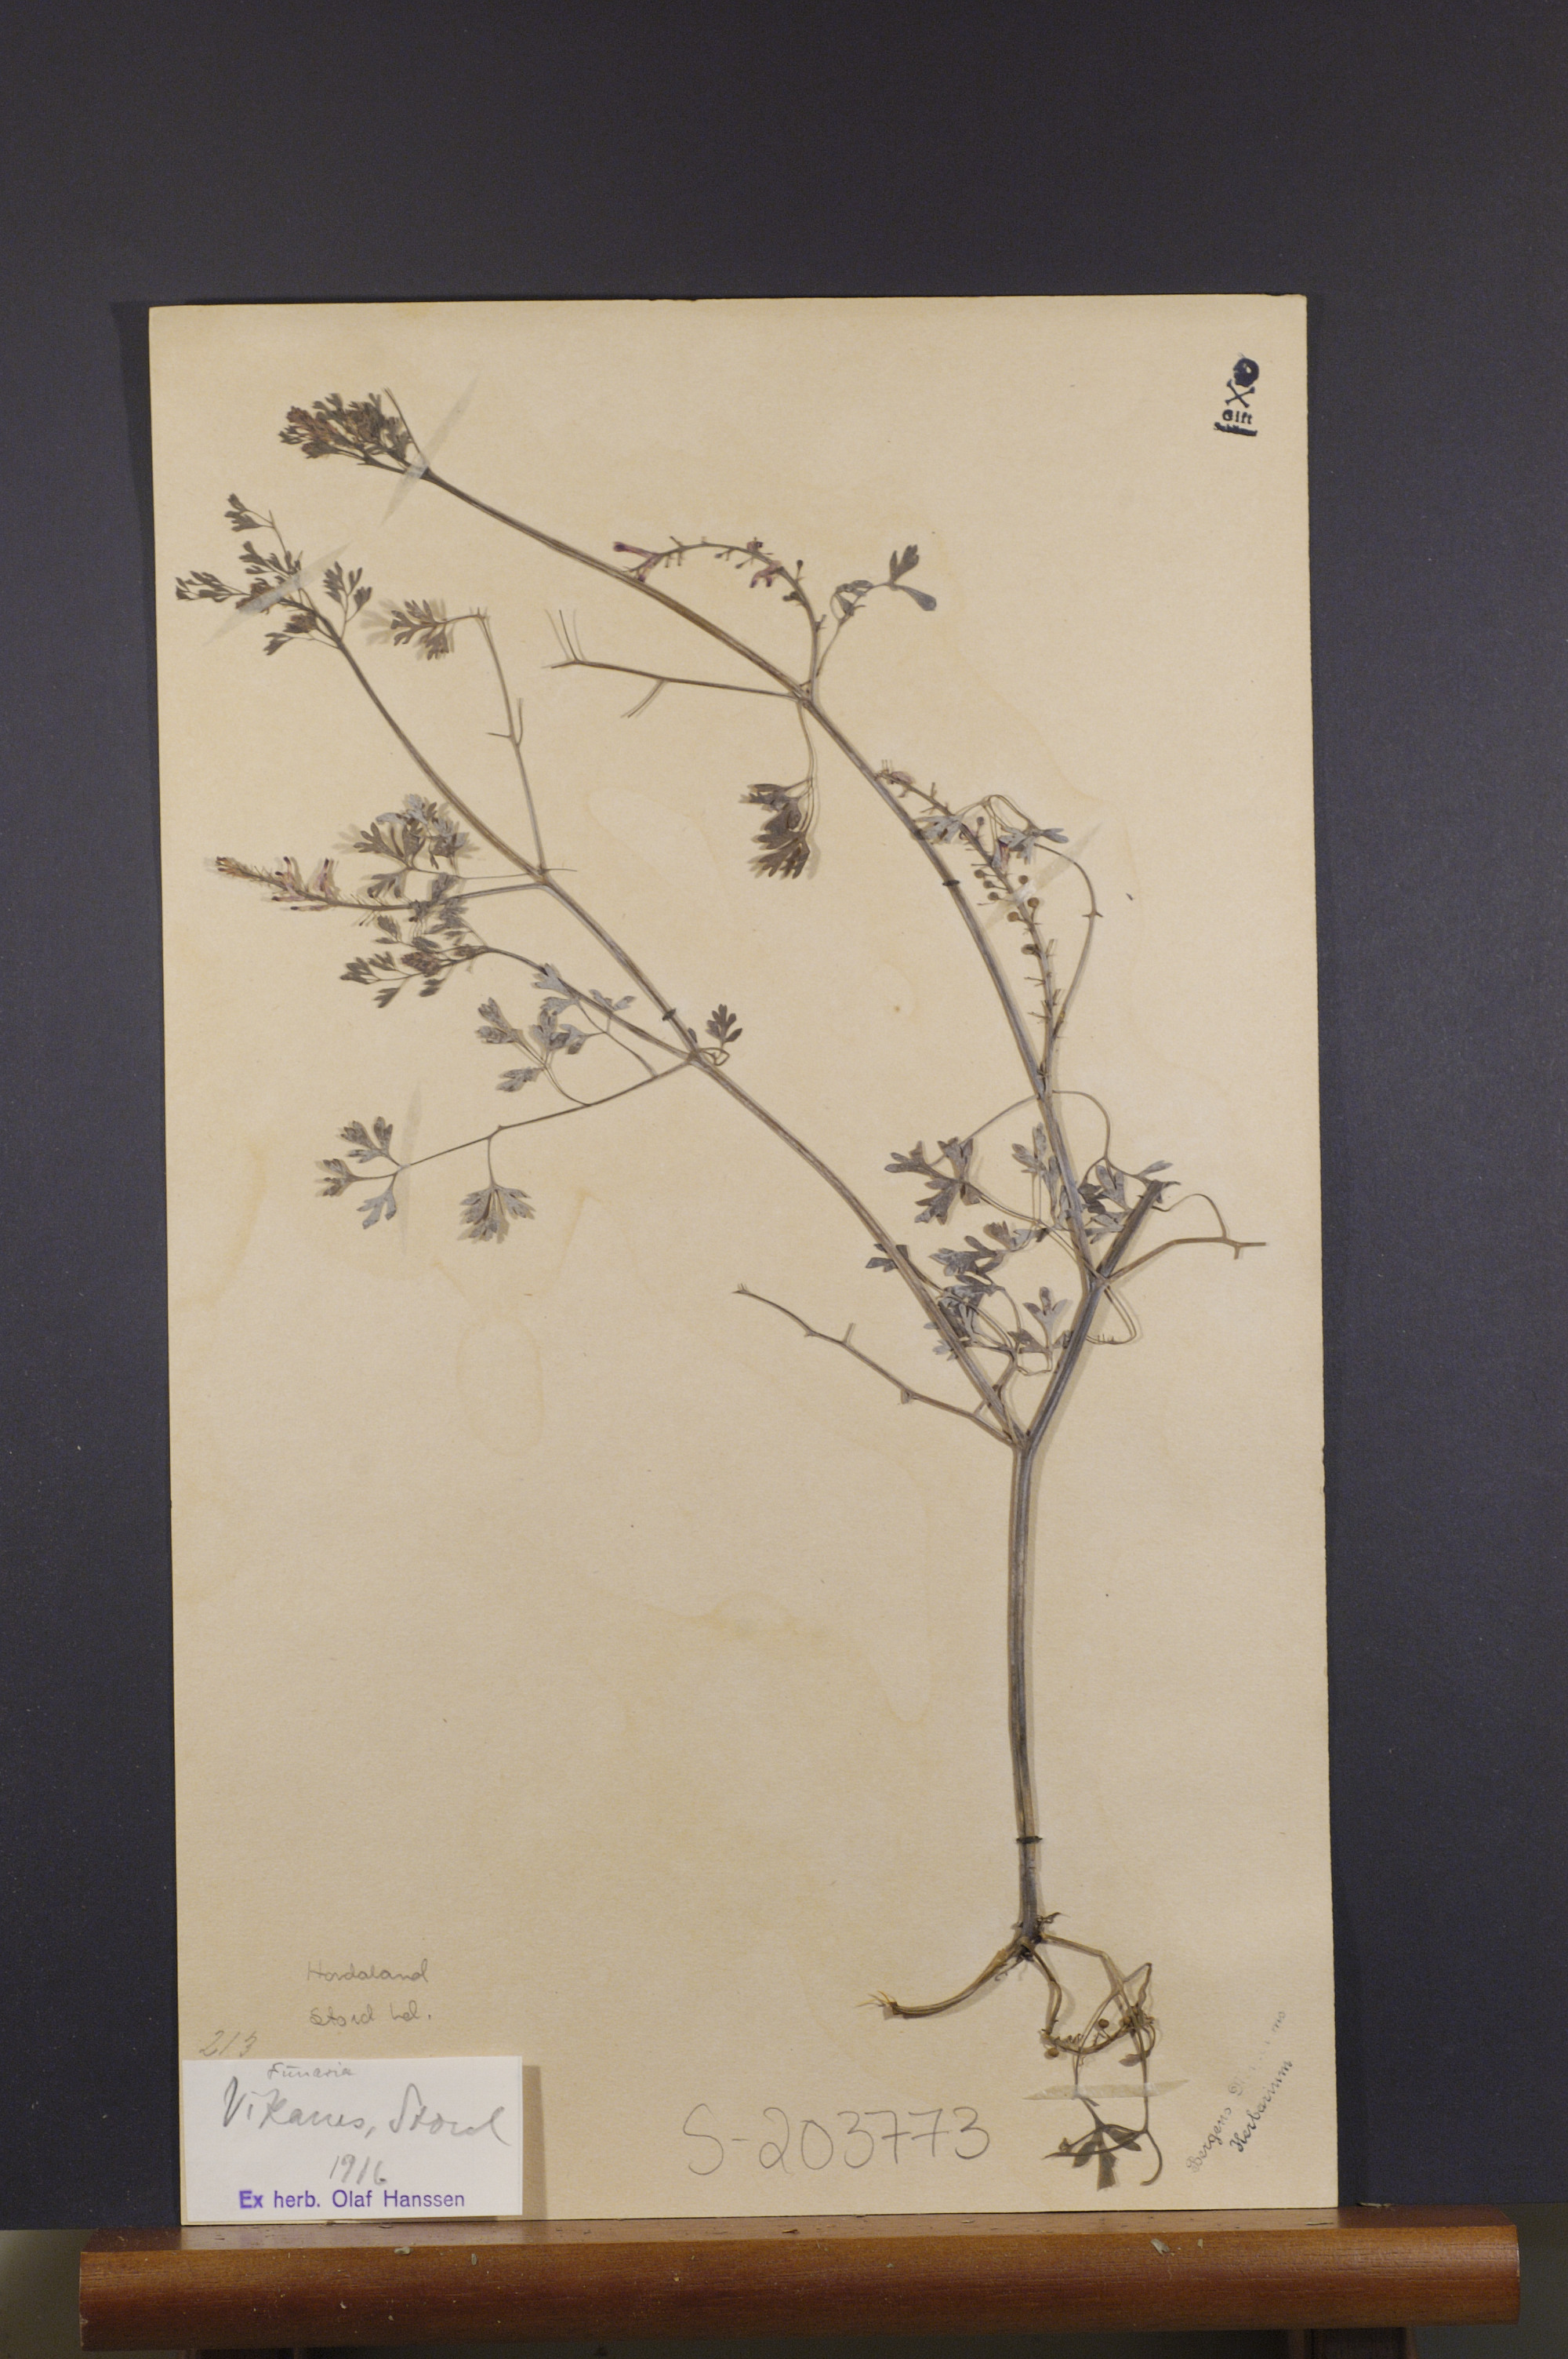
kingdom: Plantae
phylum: Tracheophyta
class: Magnoliopsida
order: Ranunculales
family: Papaveraceae
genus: Fumaria
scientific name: Fumaria
